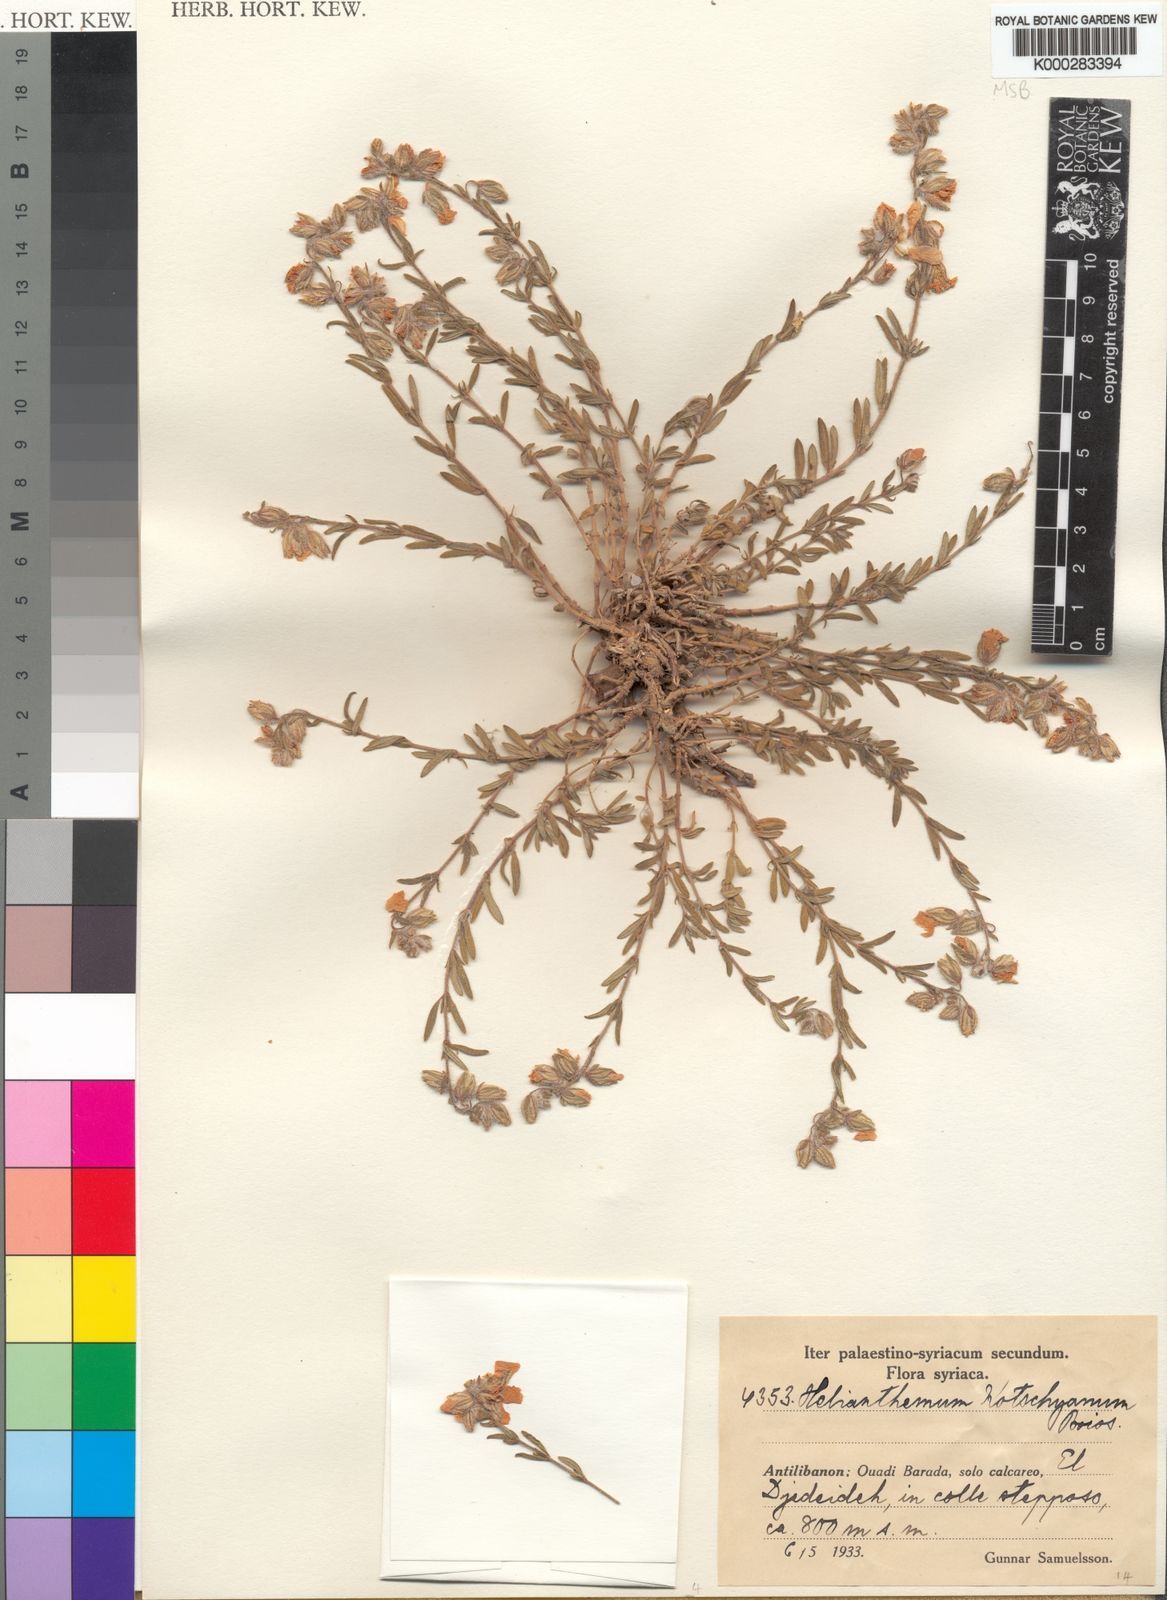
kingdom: Plantae
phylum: Tracheophyta
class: Magnoliopsida
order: Malvales
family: Cistaceae
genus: Helianthemum
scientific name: Helianthemum kotschyanum
